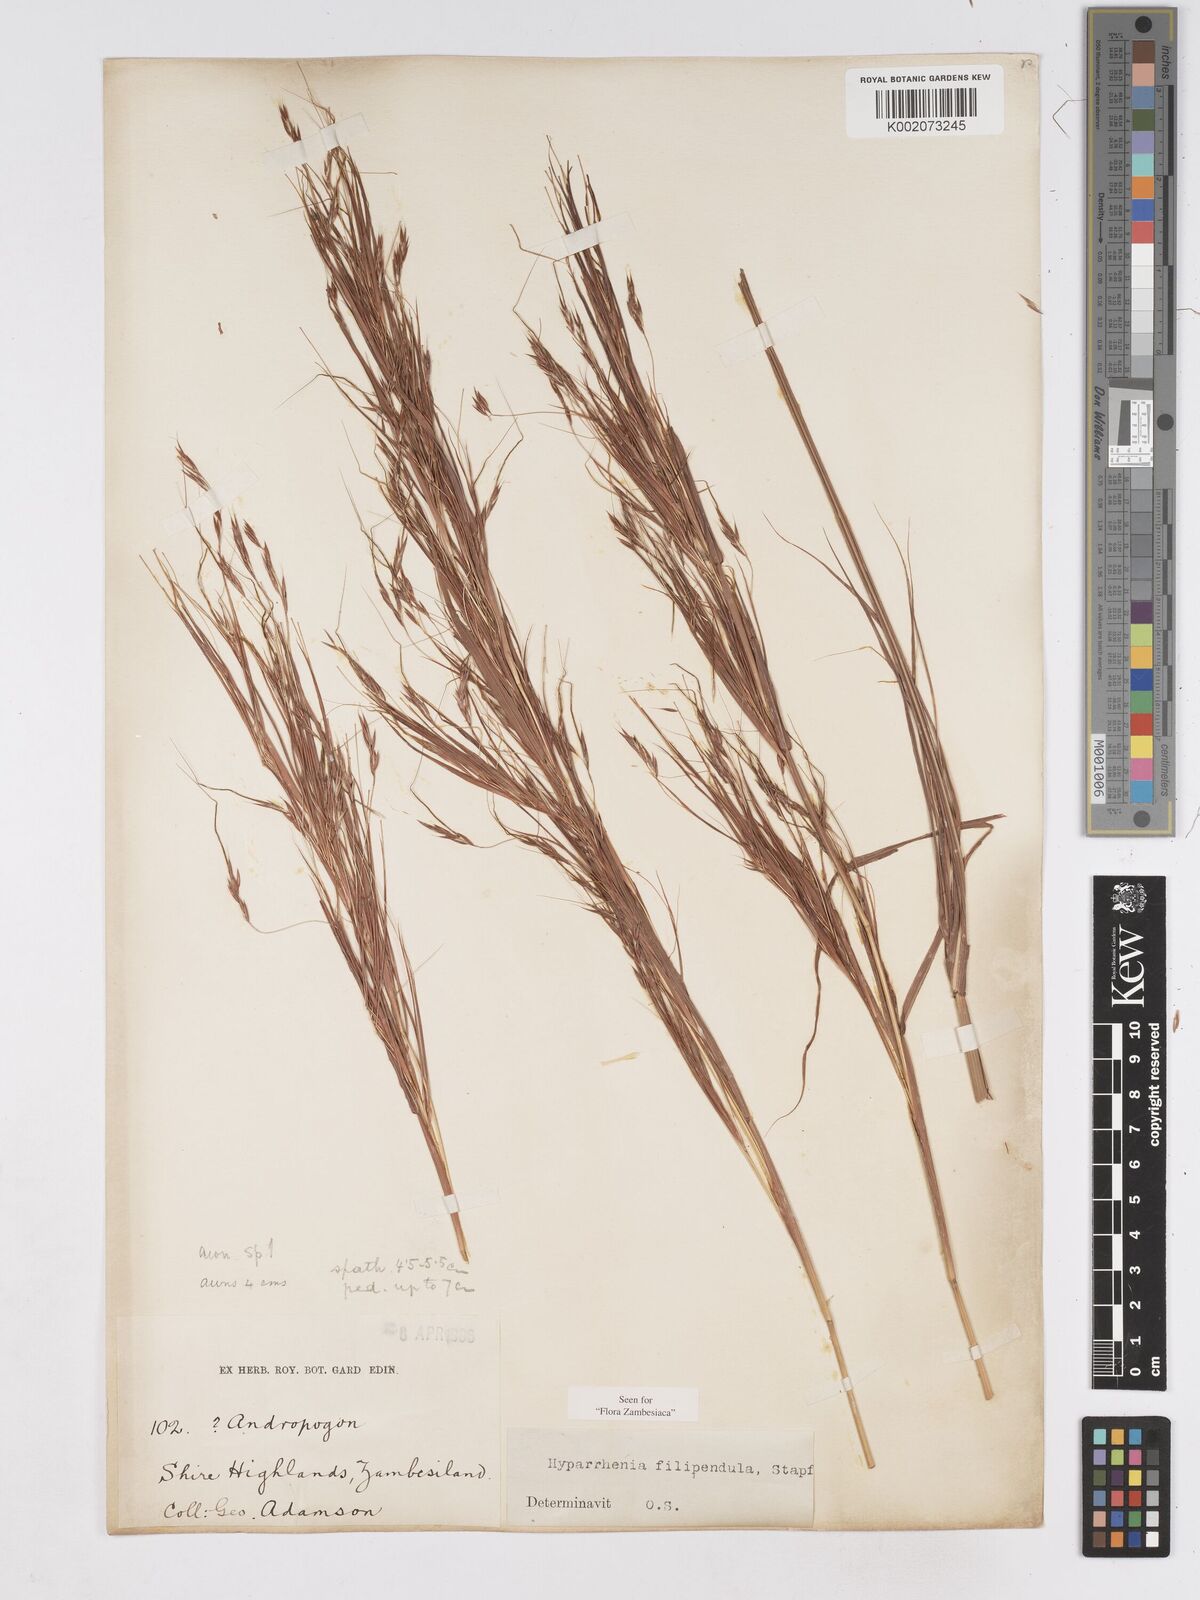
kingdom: Plantae
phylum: Tracheophyta
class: Liliopsida
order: Poales
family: Poaceae
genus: Hyparrhenia
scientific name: Hyparrhenia filipendula
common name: Tambookie grass
